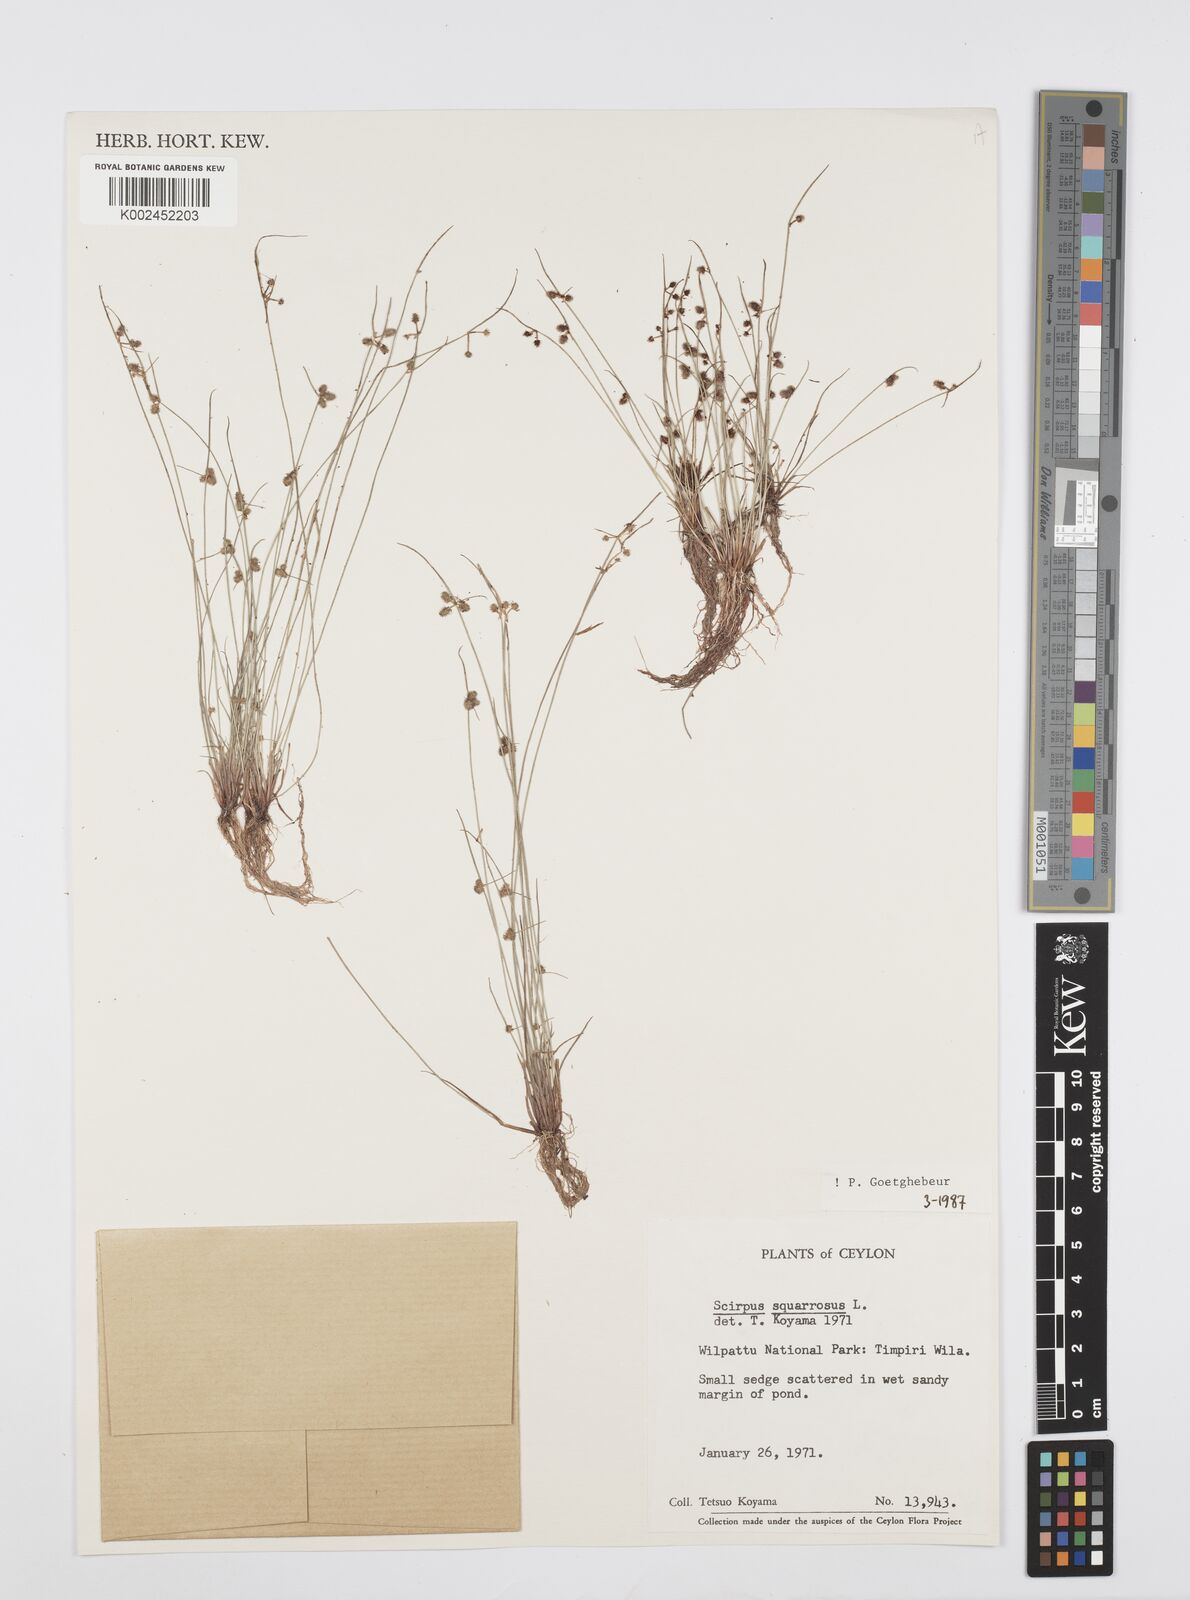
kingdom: Plantae
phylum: Tracheophyta
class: Liliopsida
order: Poales
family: Cyperaceae
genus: Cyperus
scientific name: Cyperus squarrosus
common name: Awned cyperus
